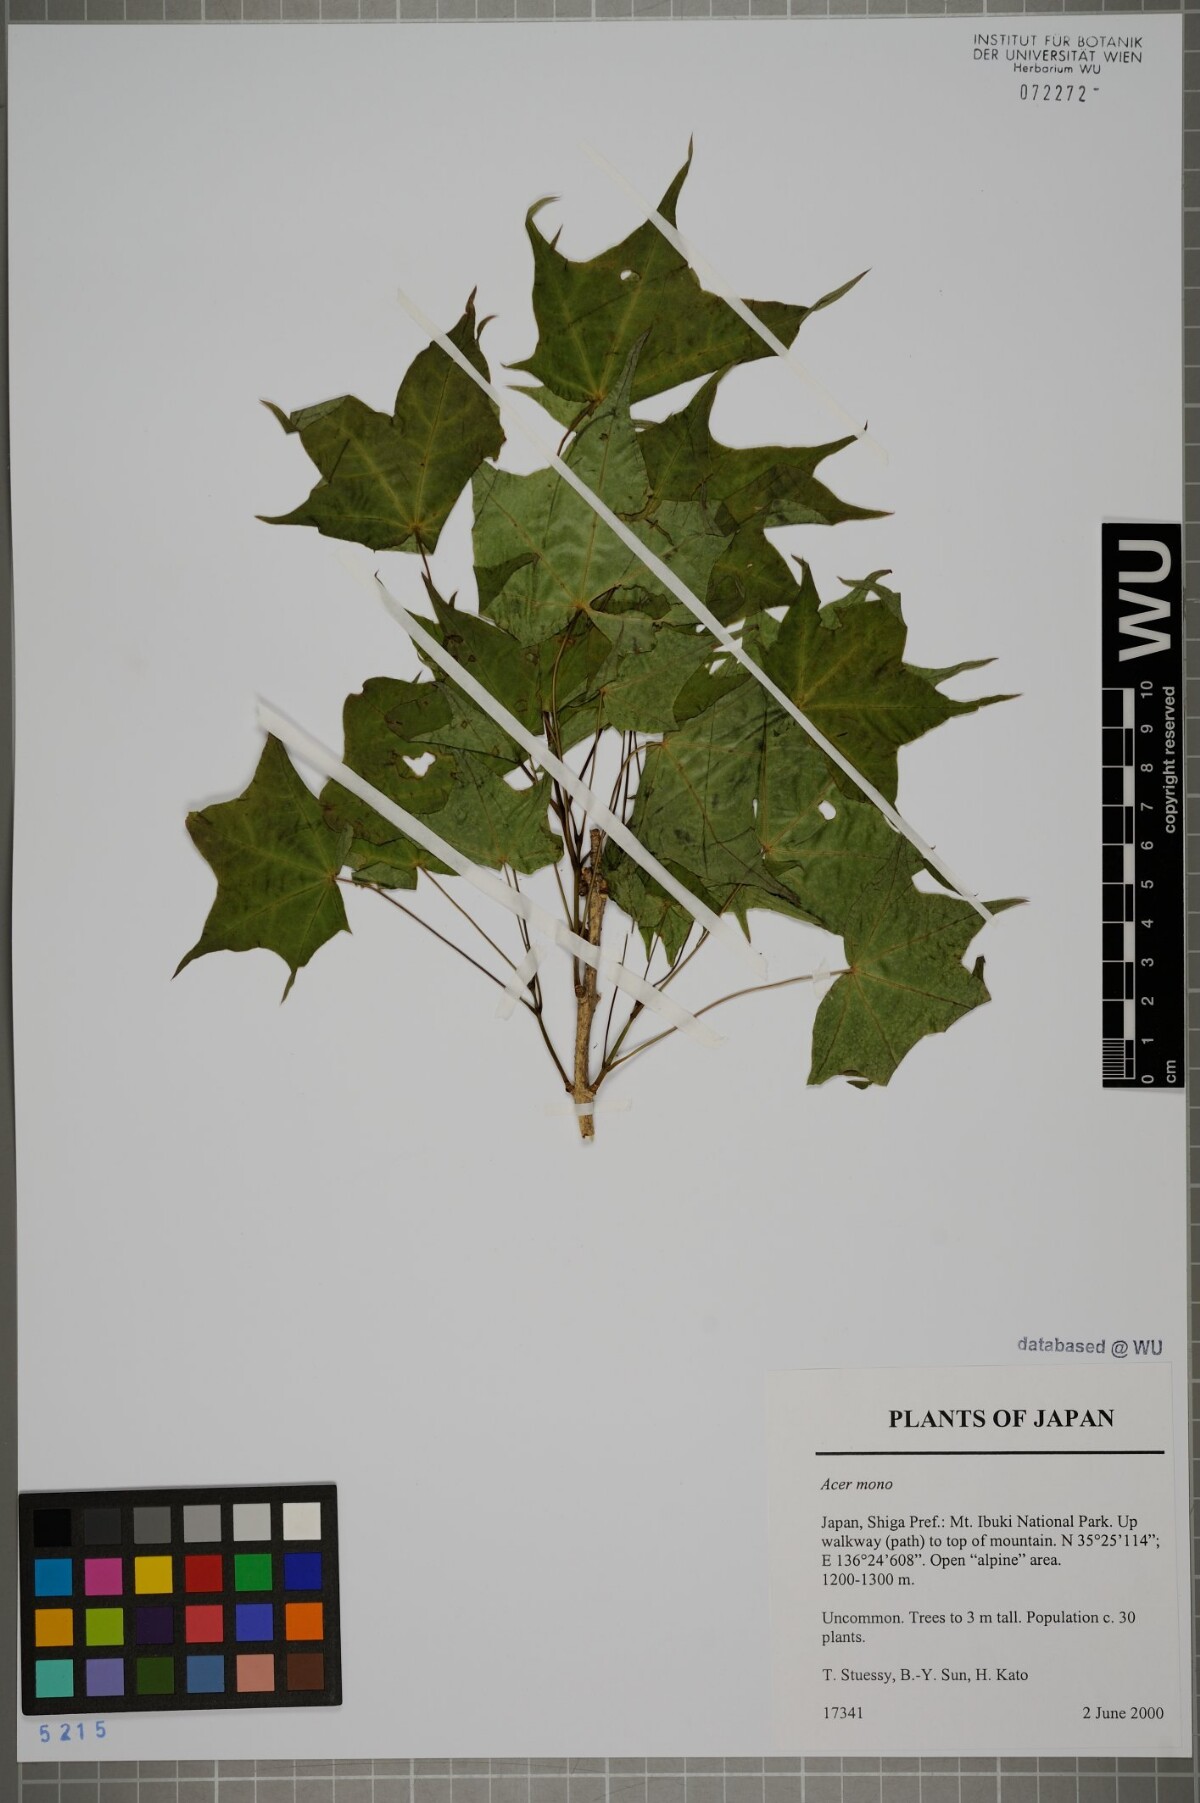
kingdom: Plantae
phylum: Tracheophyta
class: Magnoliopsida
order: Sapindales
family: Sapindaceae
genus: Acer
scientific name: Acer pictum
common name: The painted maple
